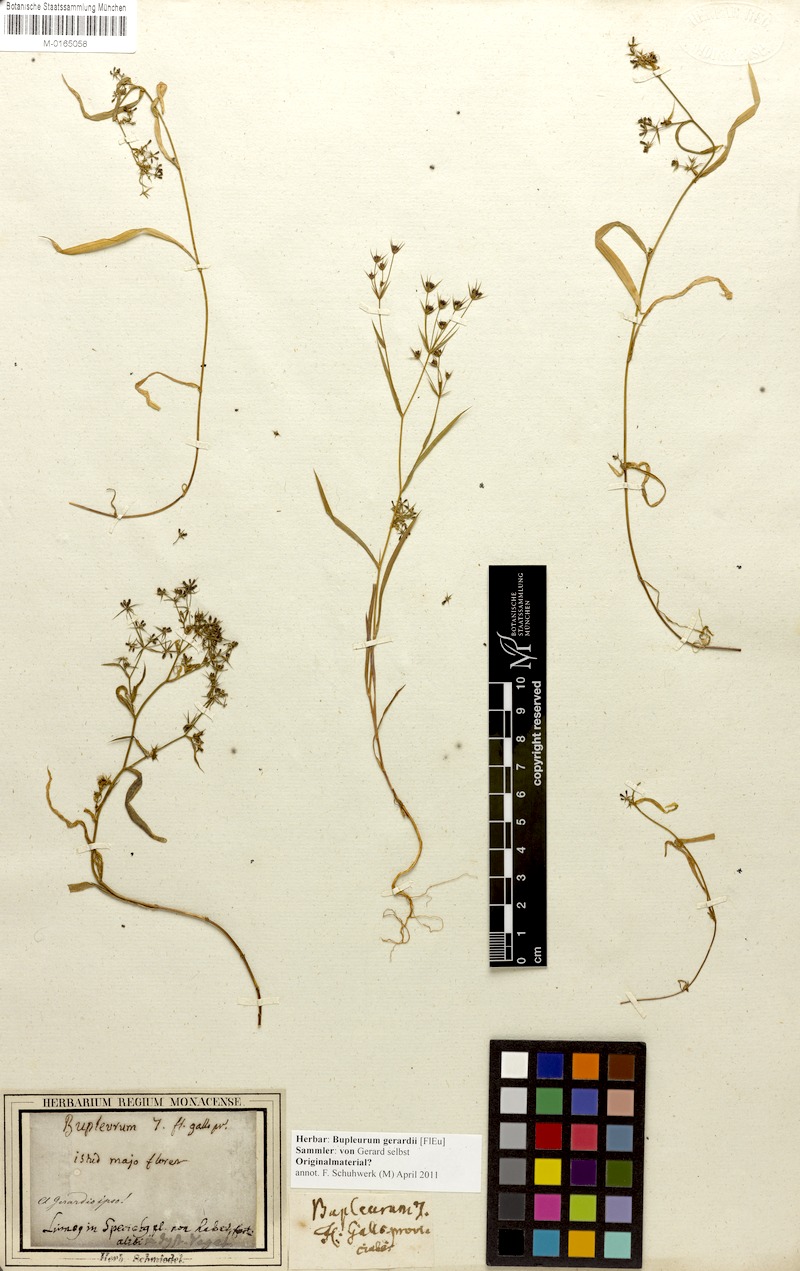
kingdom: Plantae
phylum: Tracheophyta
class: Magnoliopsida
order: Apiales
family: Apiaceae
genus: Bupleurum
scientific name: Bupleurum gerardi
